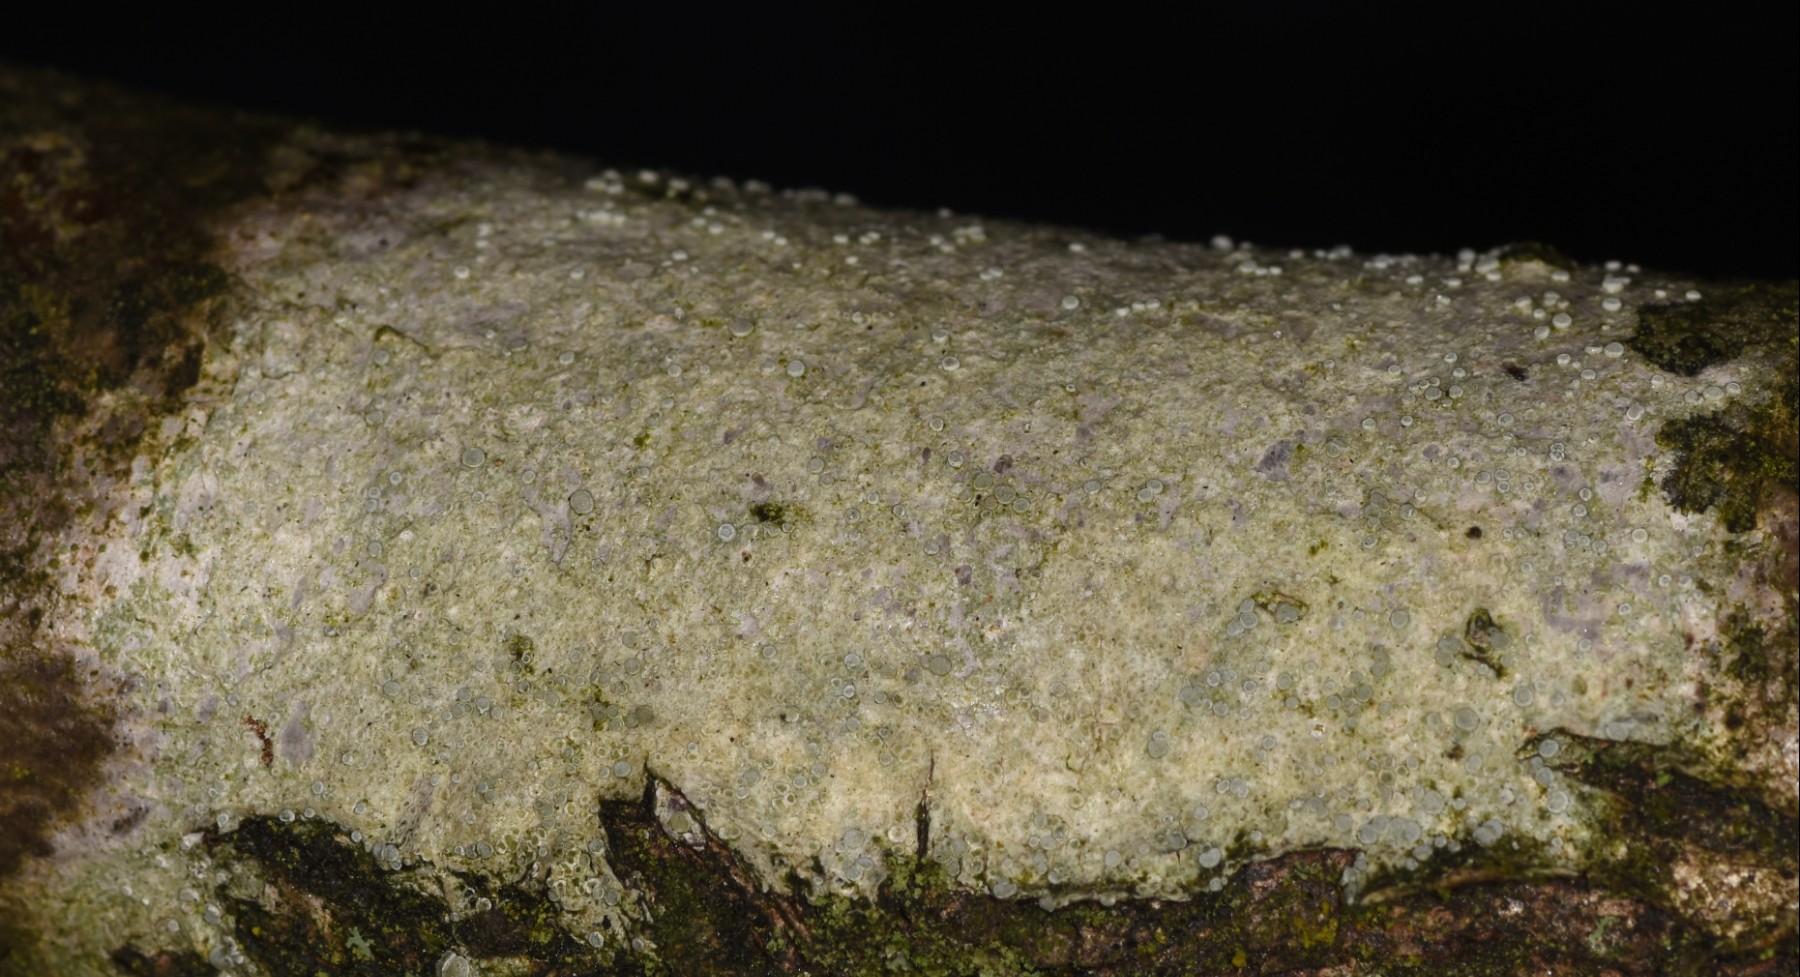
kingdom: Fungi
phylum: Ascomycota
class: Lecanoromycetes
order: Lecanorales
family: Lecanoraceae
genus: Glaucomaria
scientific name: Glaucomaria carpinea
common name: hviddugget kantskivelav
